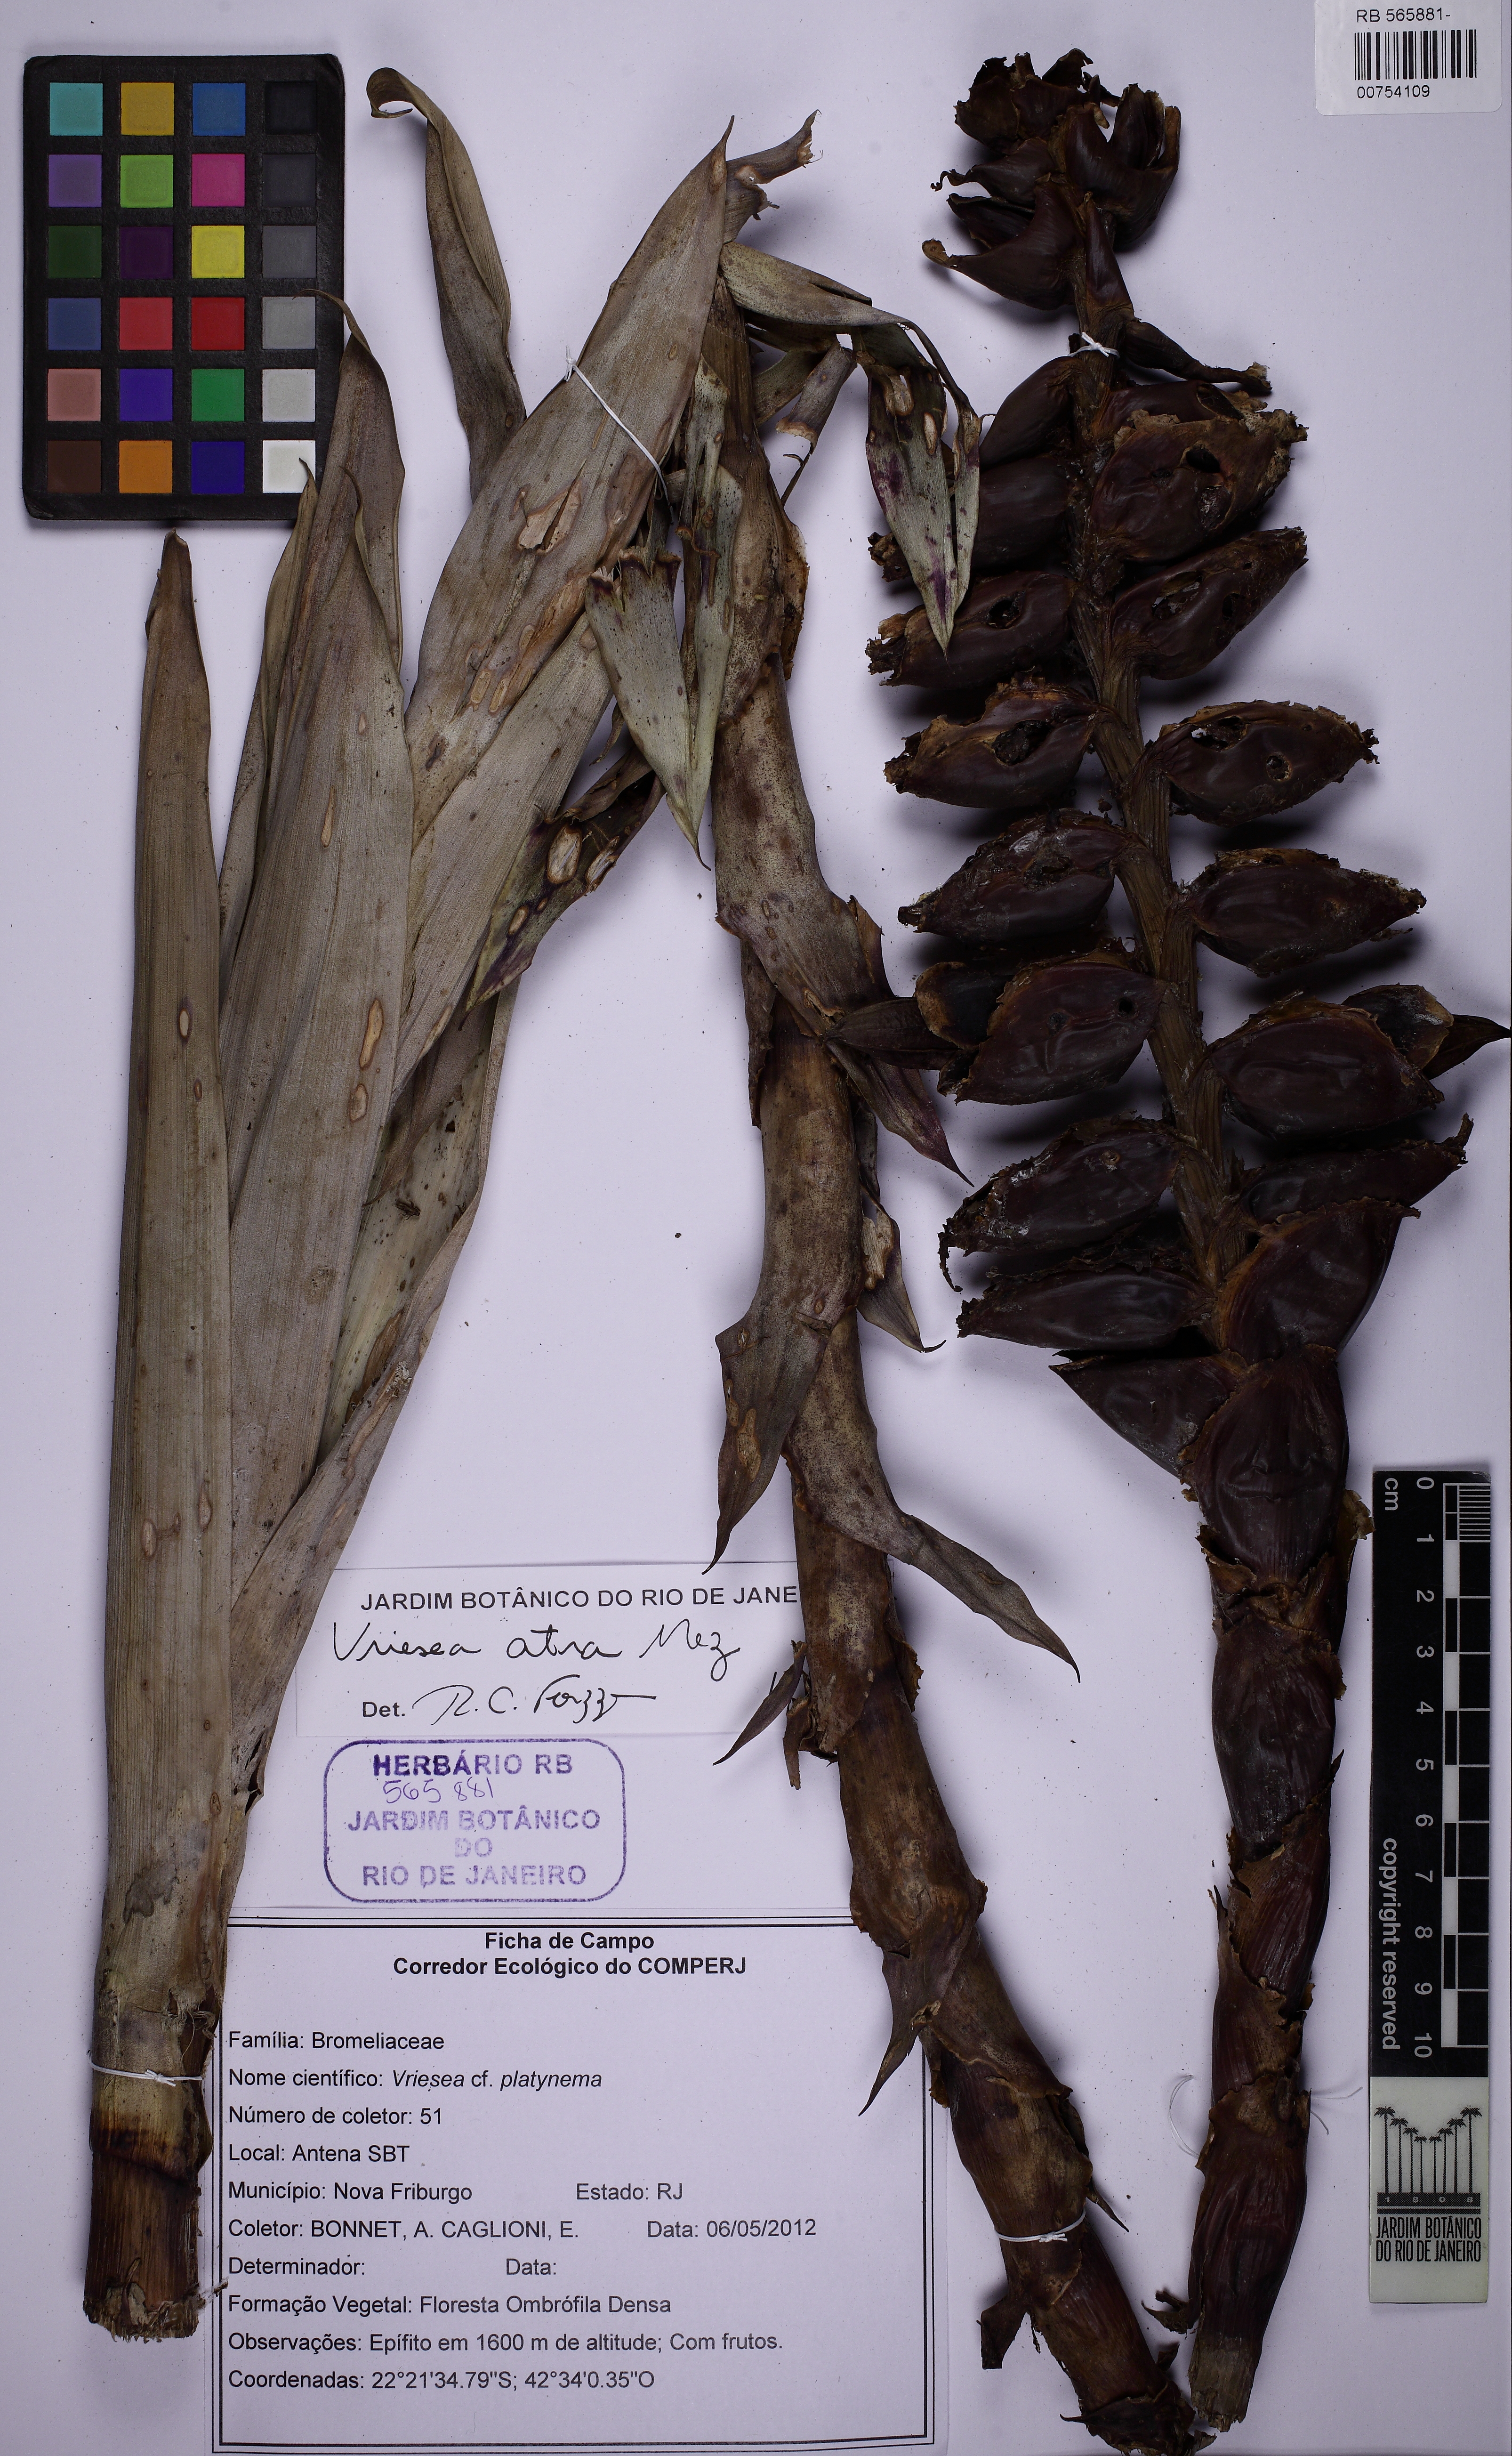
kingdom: Plantae
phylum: Tracheophyta
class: Liliopsida
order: Poales
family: Bromeliaceae
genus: Vriesea
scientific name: Vriesea atra
